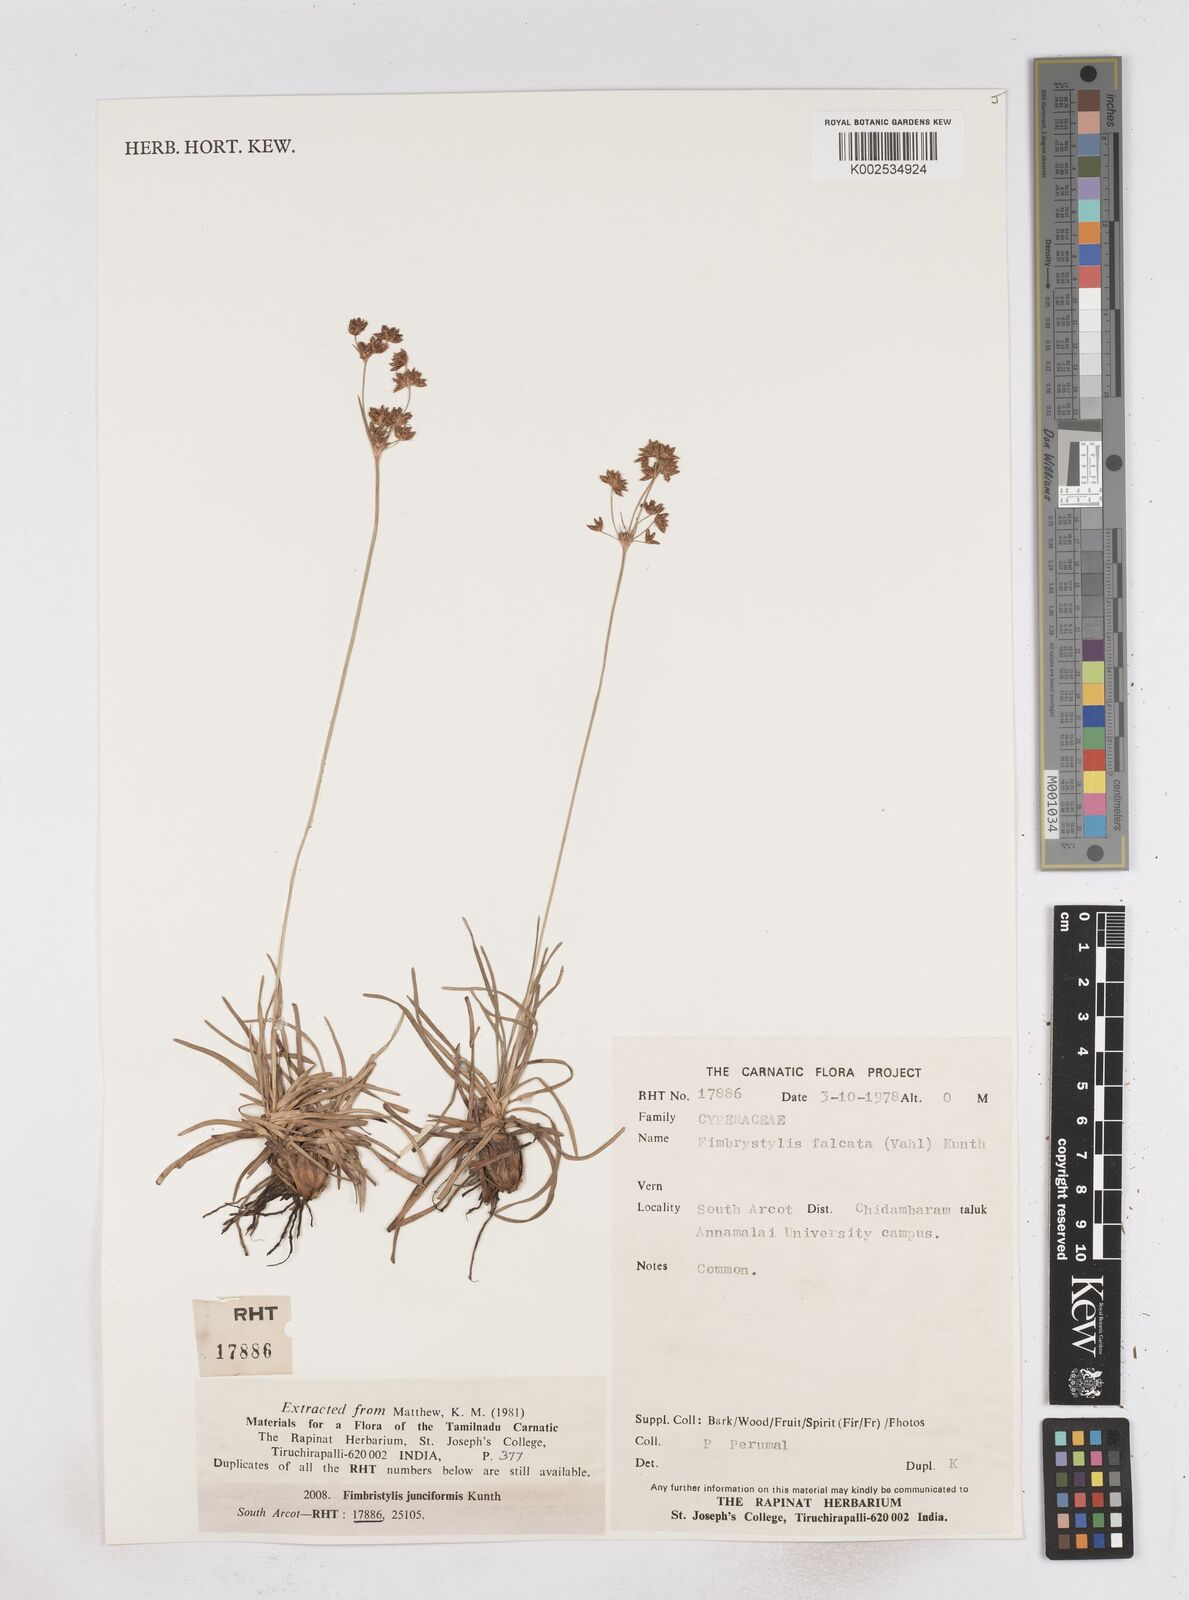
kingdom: Plantae
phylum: Tracheophyta
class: Liliopsida
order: Poales
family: Cyperaceae
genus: Fimbristylis
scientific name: Fimbristylis falcata
